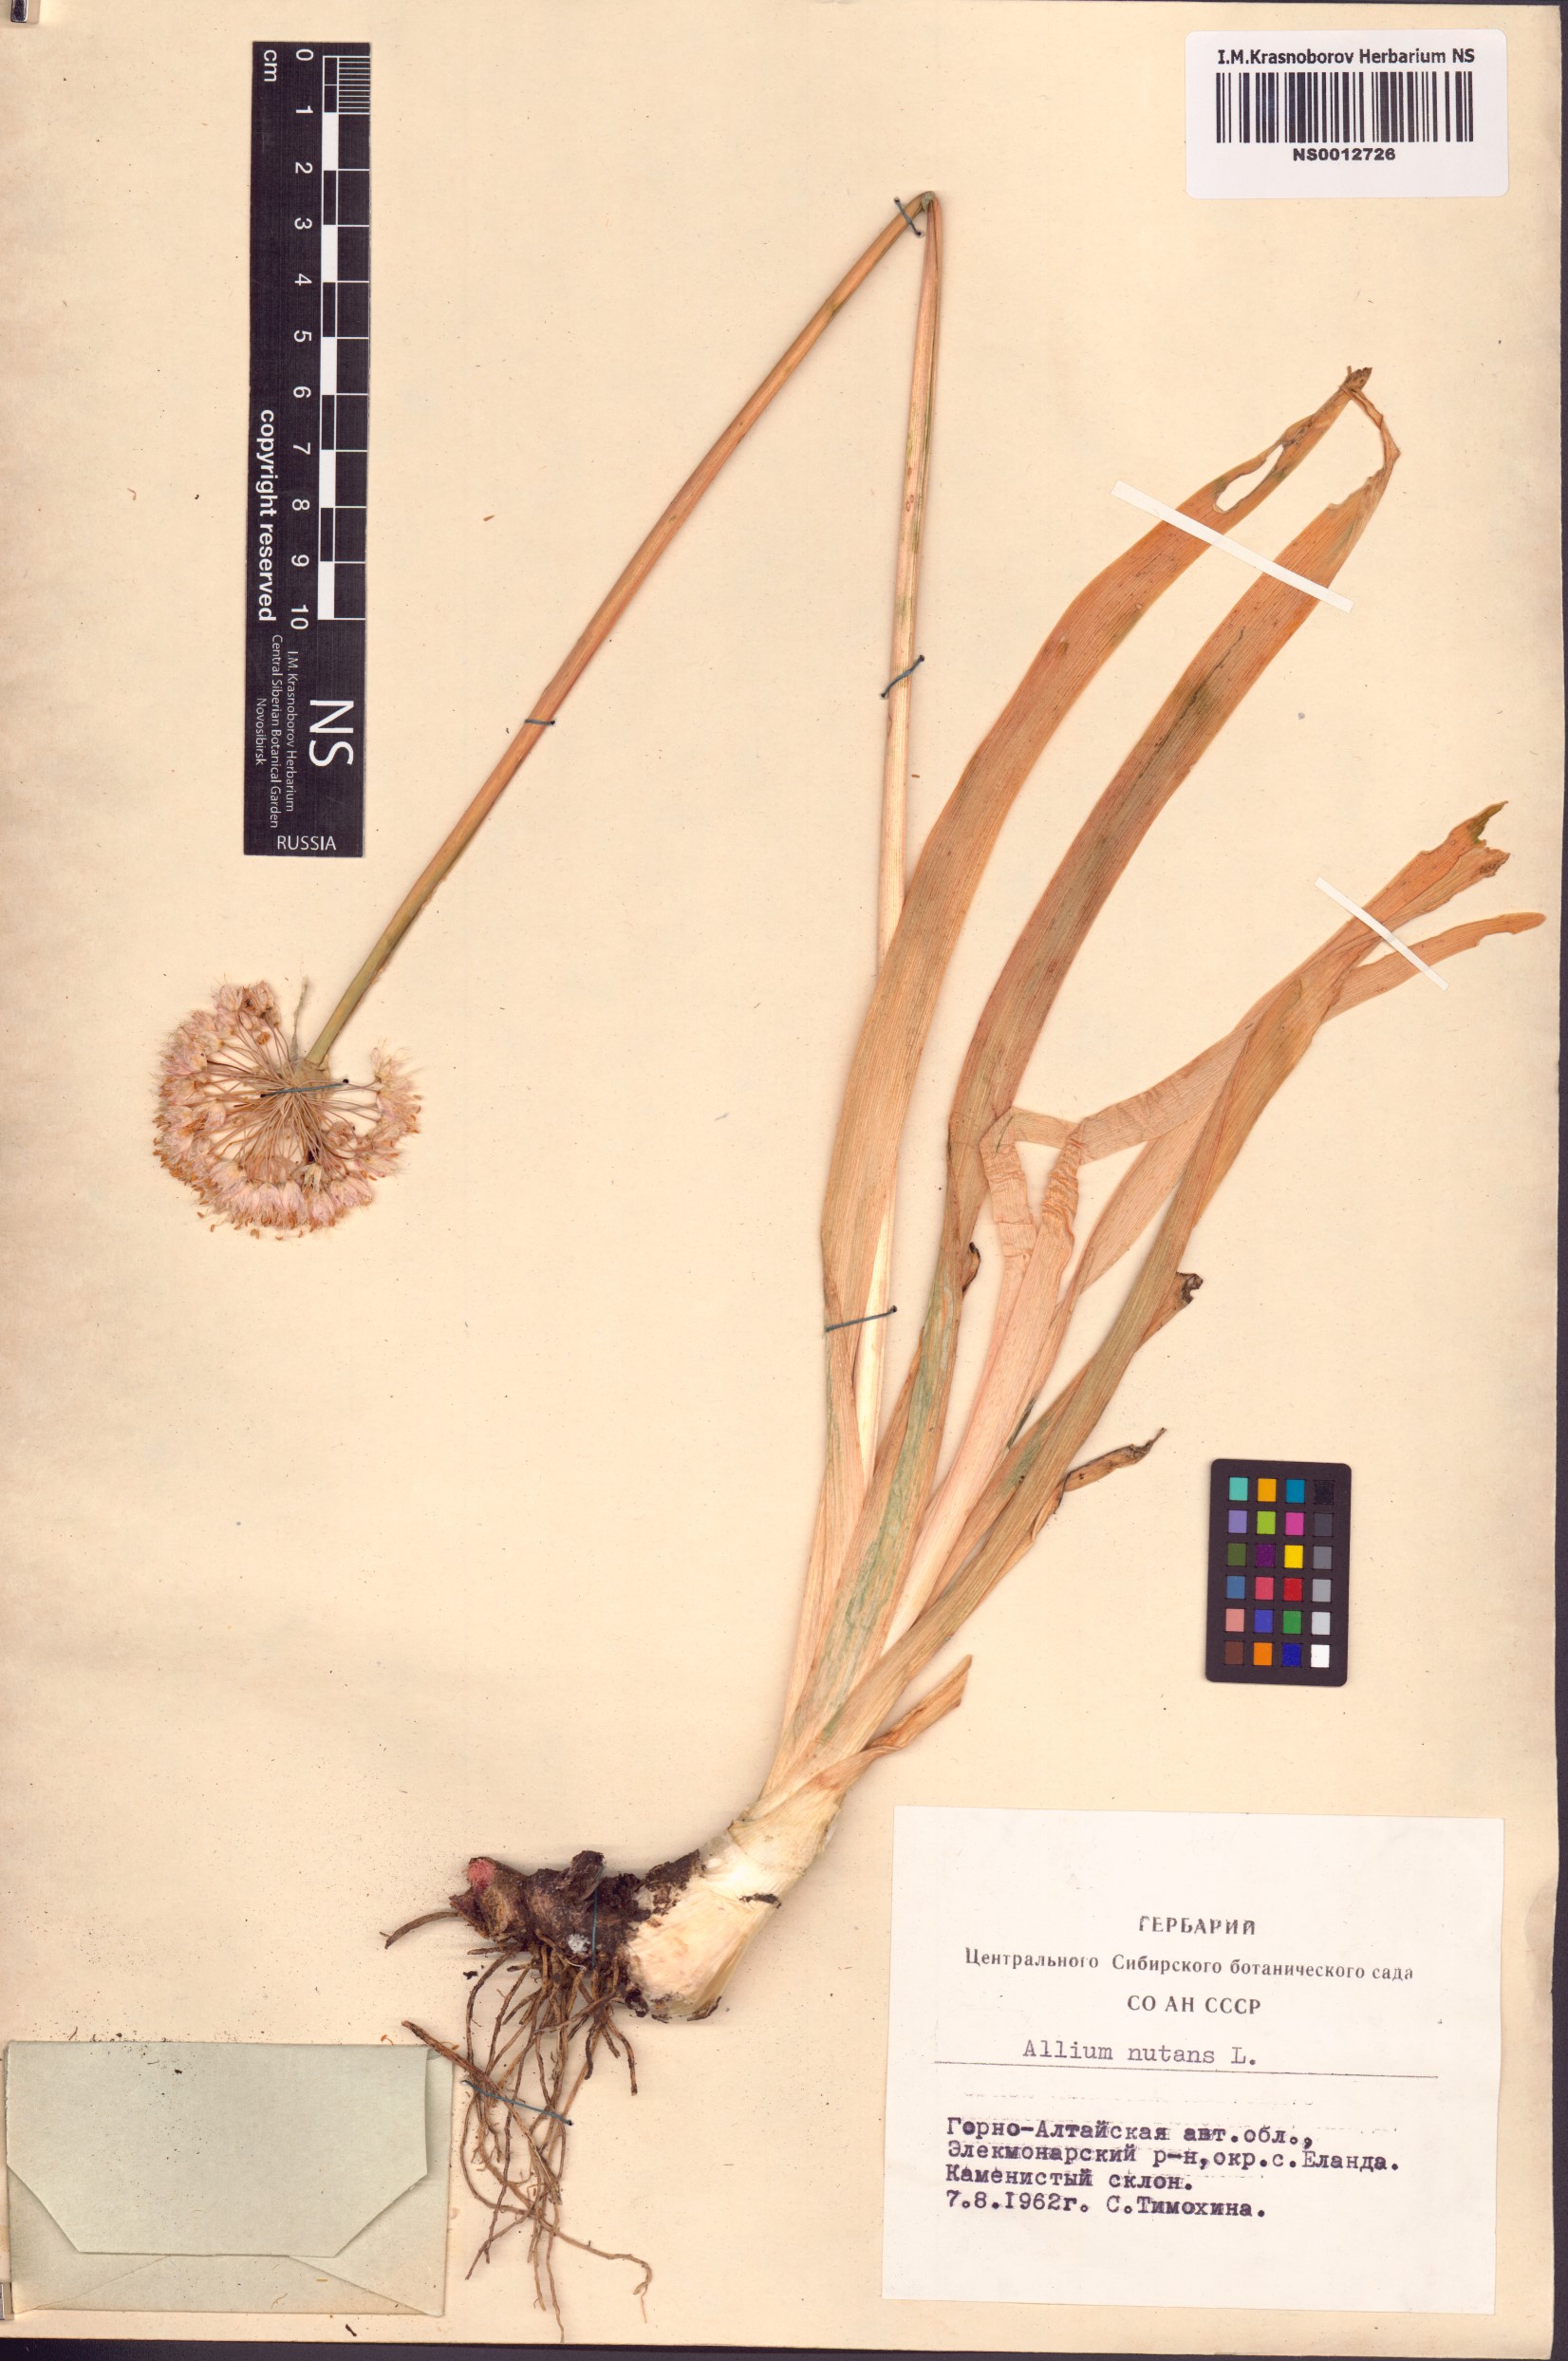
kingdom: Plantae
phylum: Tracheophyta
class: Liliopsida
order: Asparagales
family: Amaryllidaceae
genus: Allium
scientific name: Allium nutans
